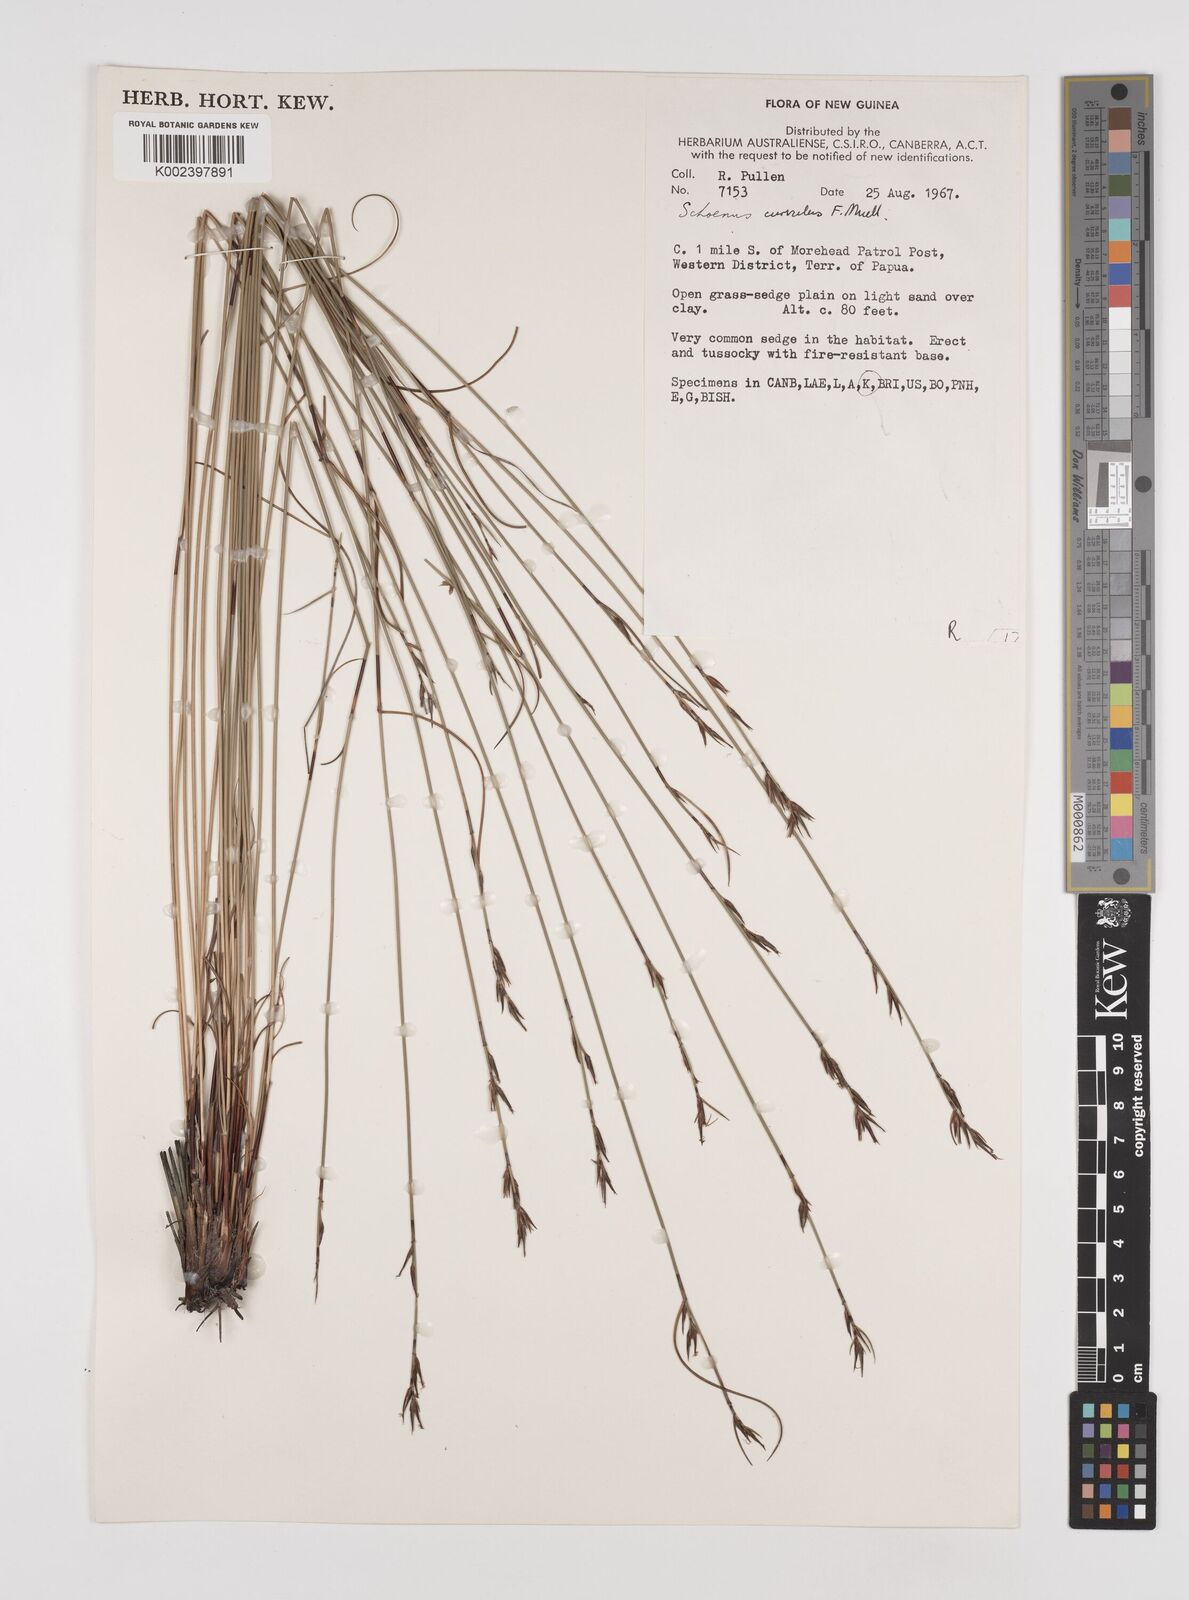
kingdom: Plantae
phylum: Tracheophyta
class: Liliopsida
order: Poales
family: Cyperaceae
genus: Schoenus
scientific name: Schoenus curvulus
